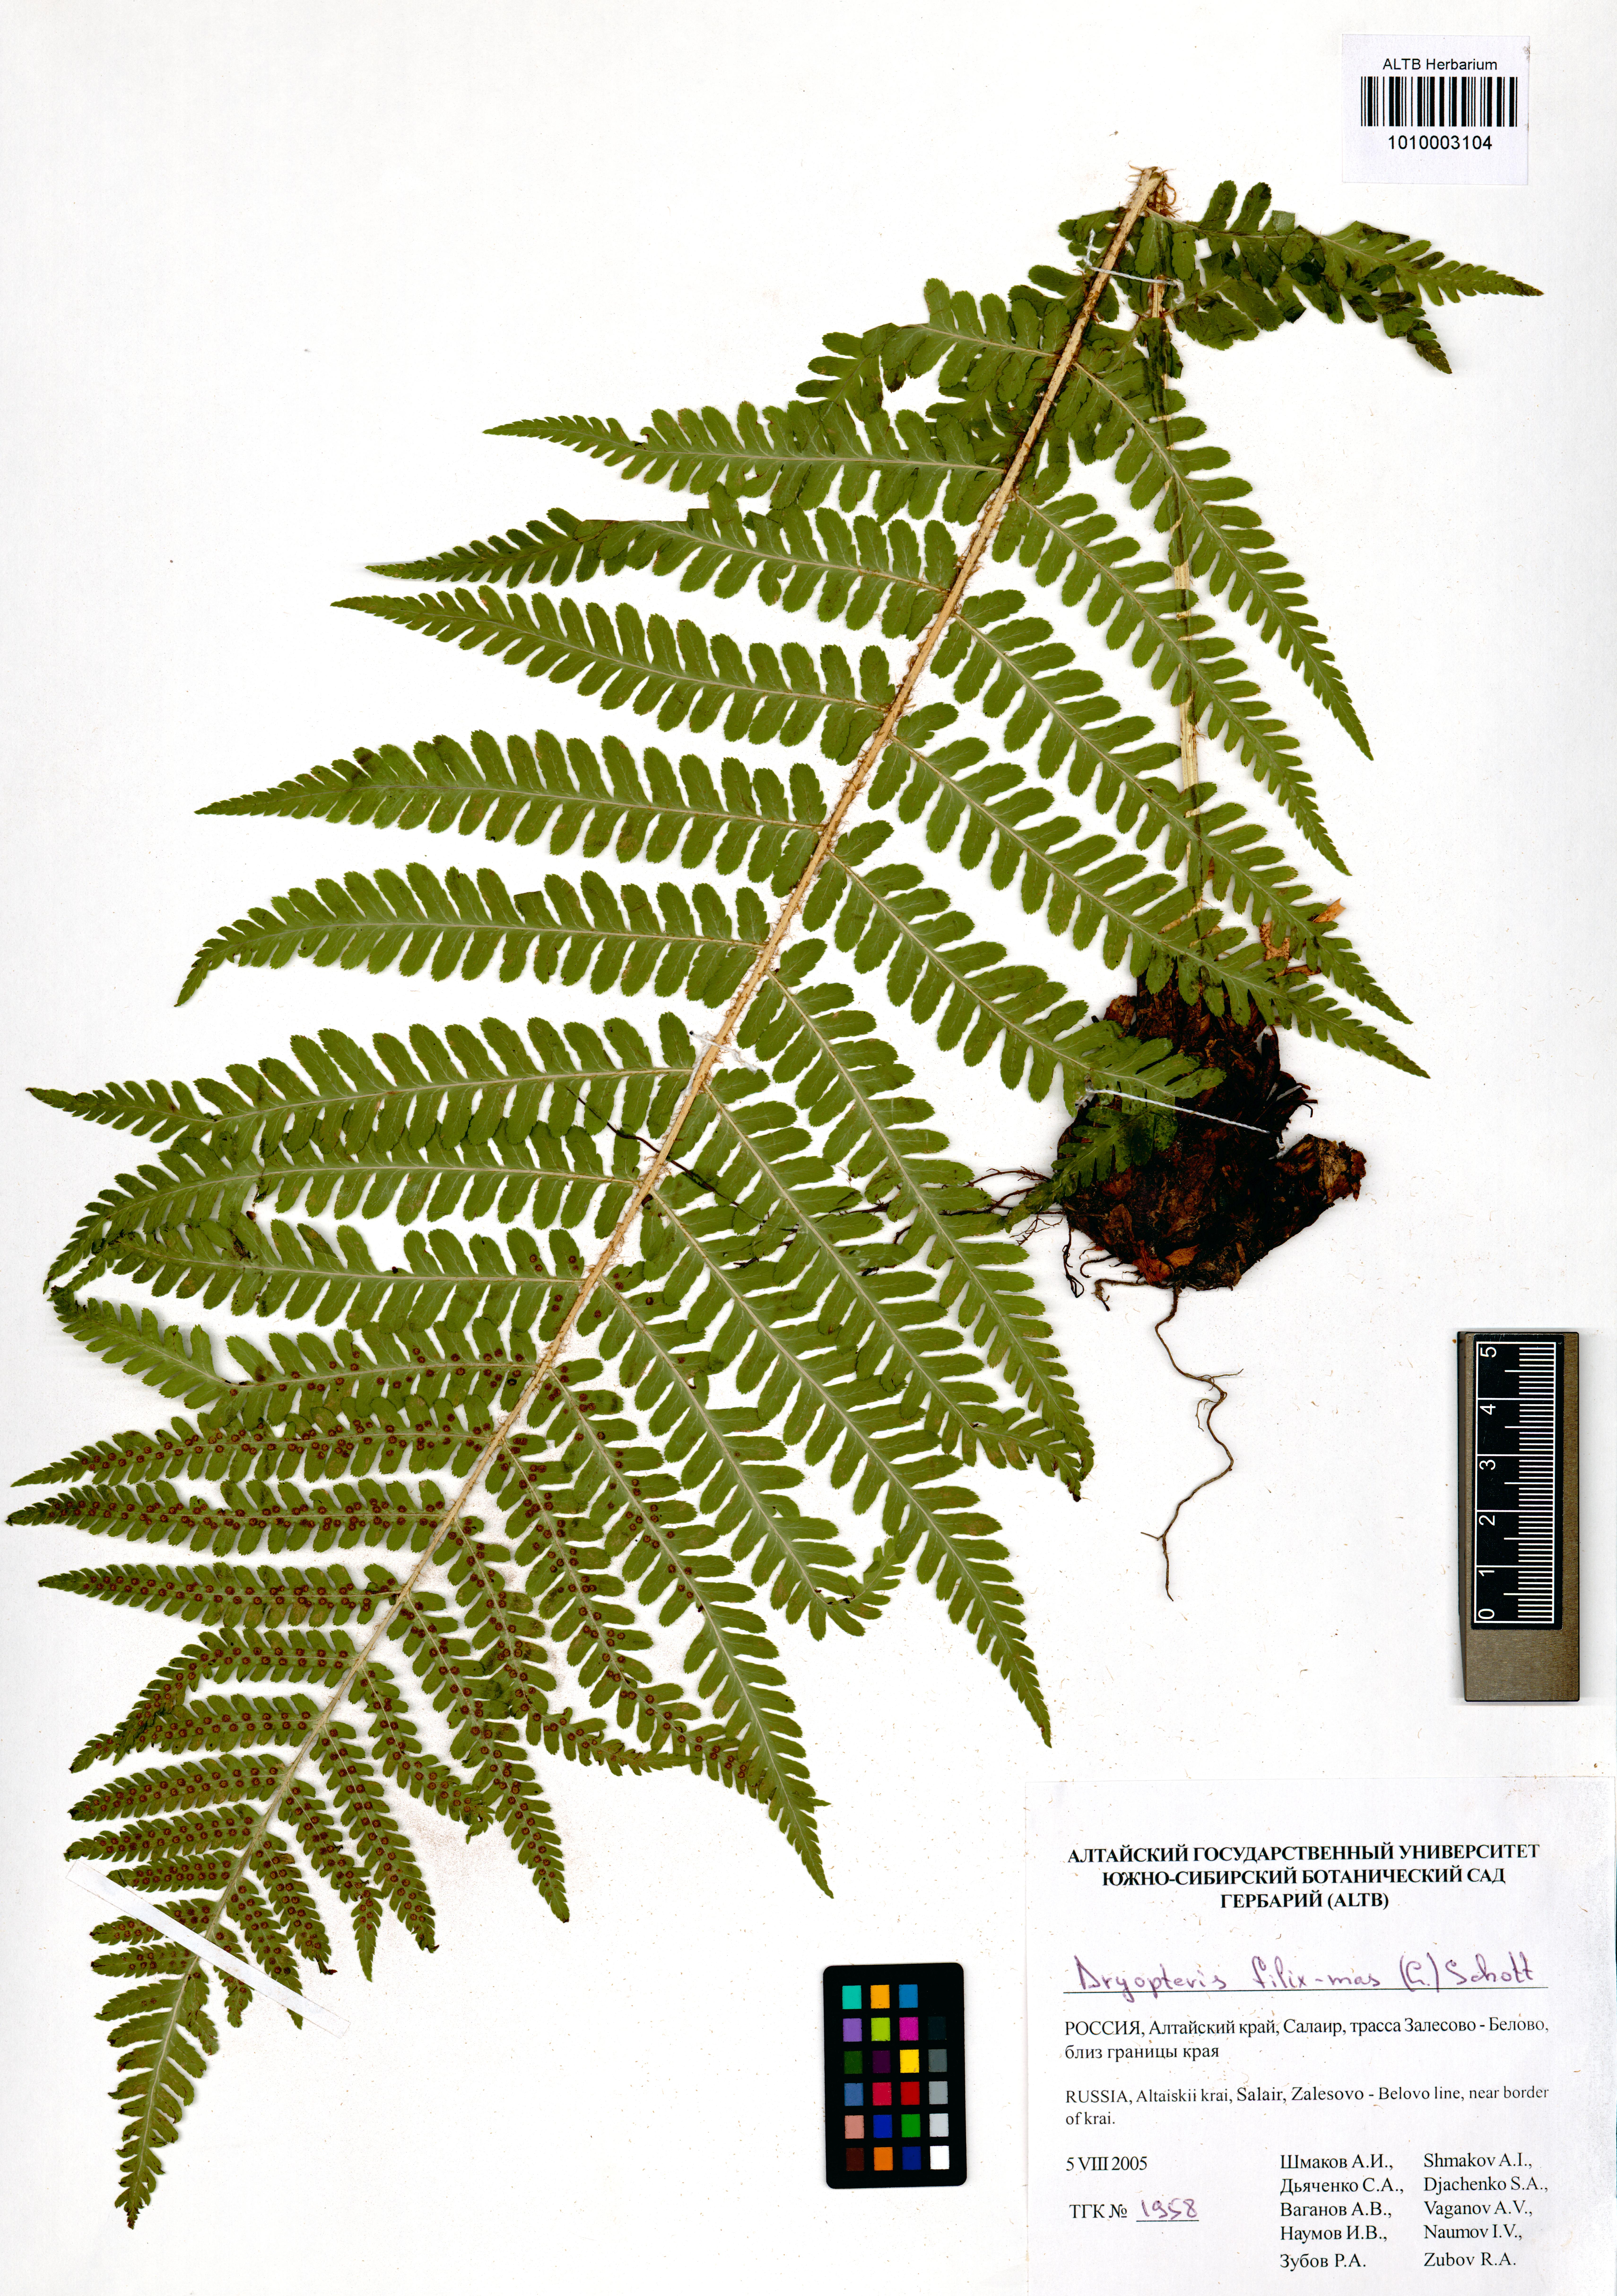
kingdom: Plantae
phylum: Tracheophyta
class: Polypodiopsida
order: Polypodiales
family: Dryopteridaceae
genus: Dryopteris
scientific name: Dryopteris filix-mas
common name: Male fern
